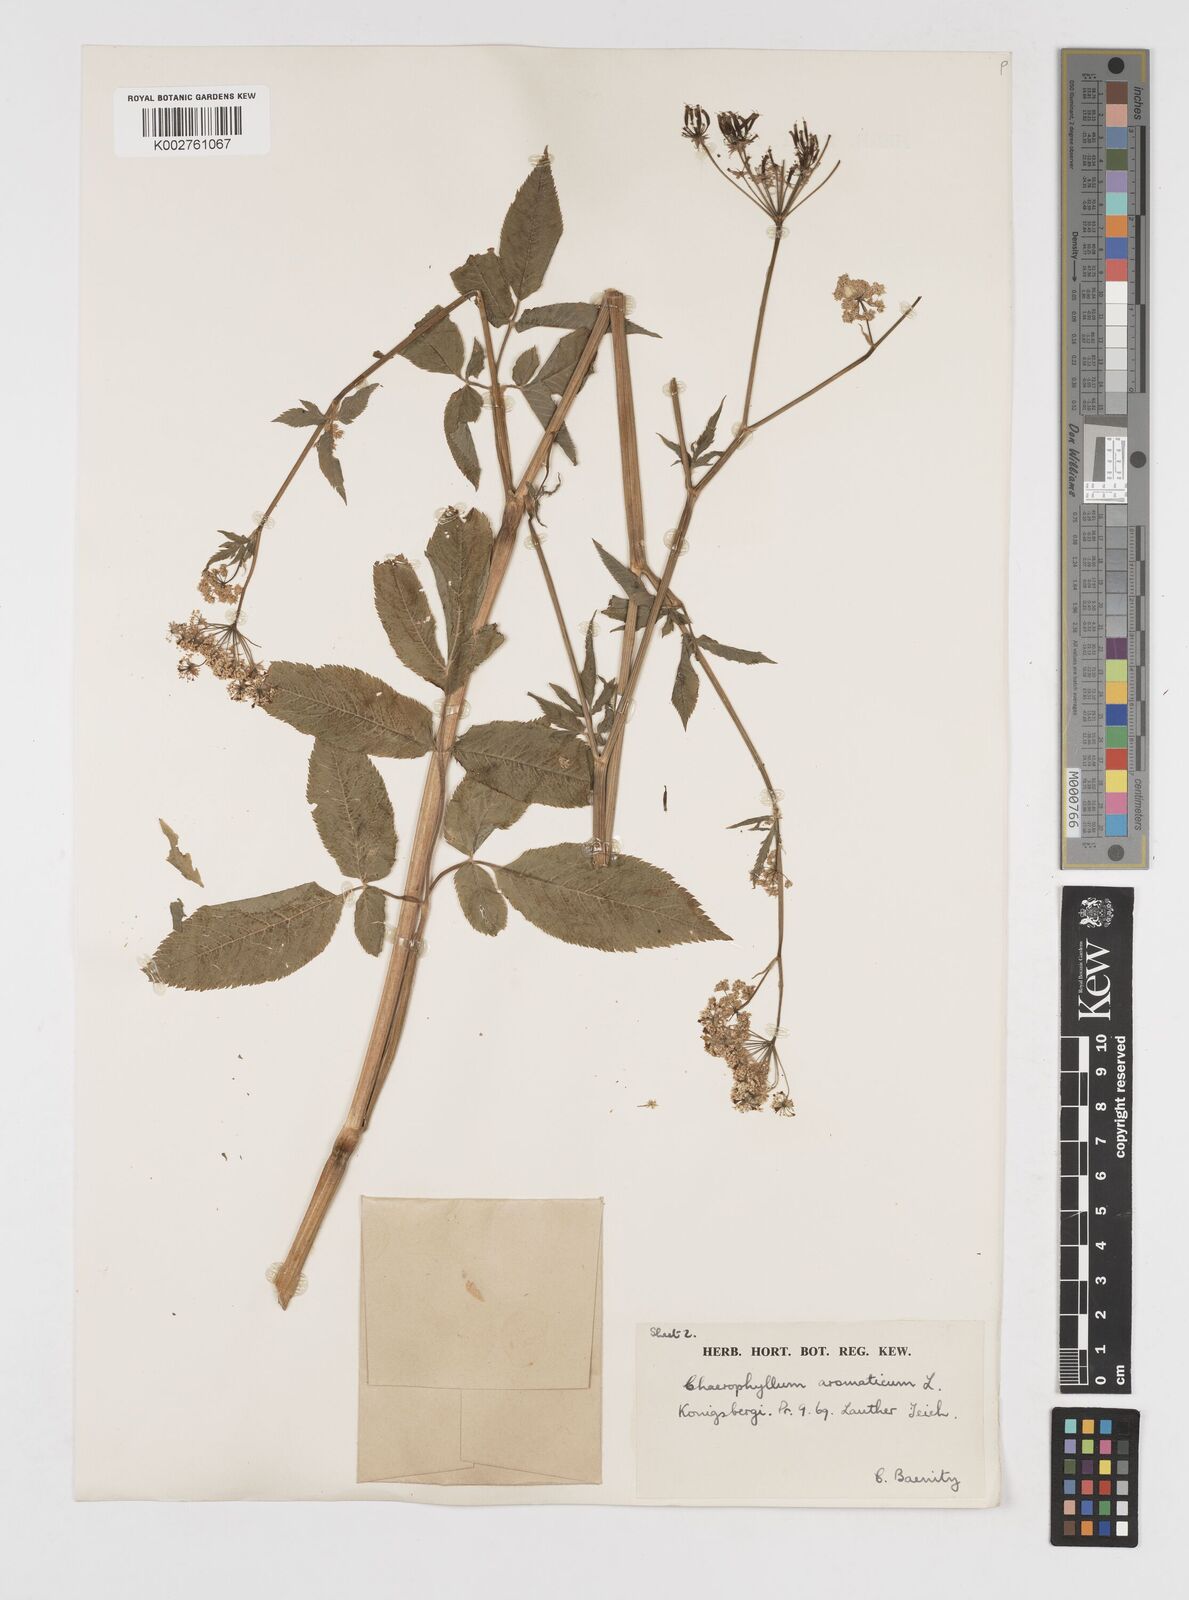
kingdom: Plantae
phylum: Tracheophyta
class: Magnoliopsida
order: Apiales
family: Apiaceae
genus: Chaerophyllum
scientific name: Chaerophyllum aromaticum
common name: Broadleaf chervil
